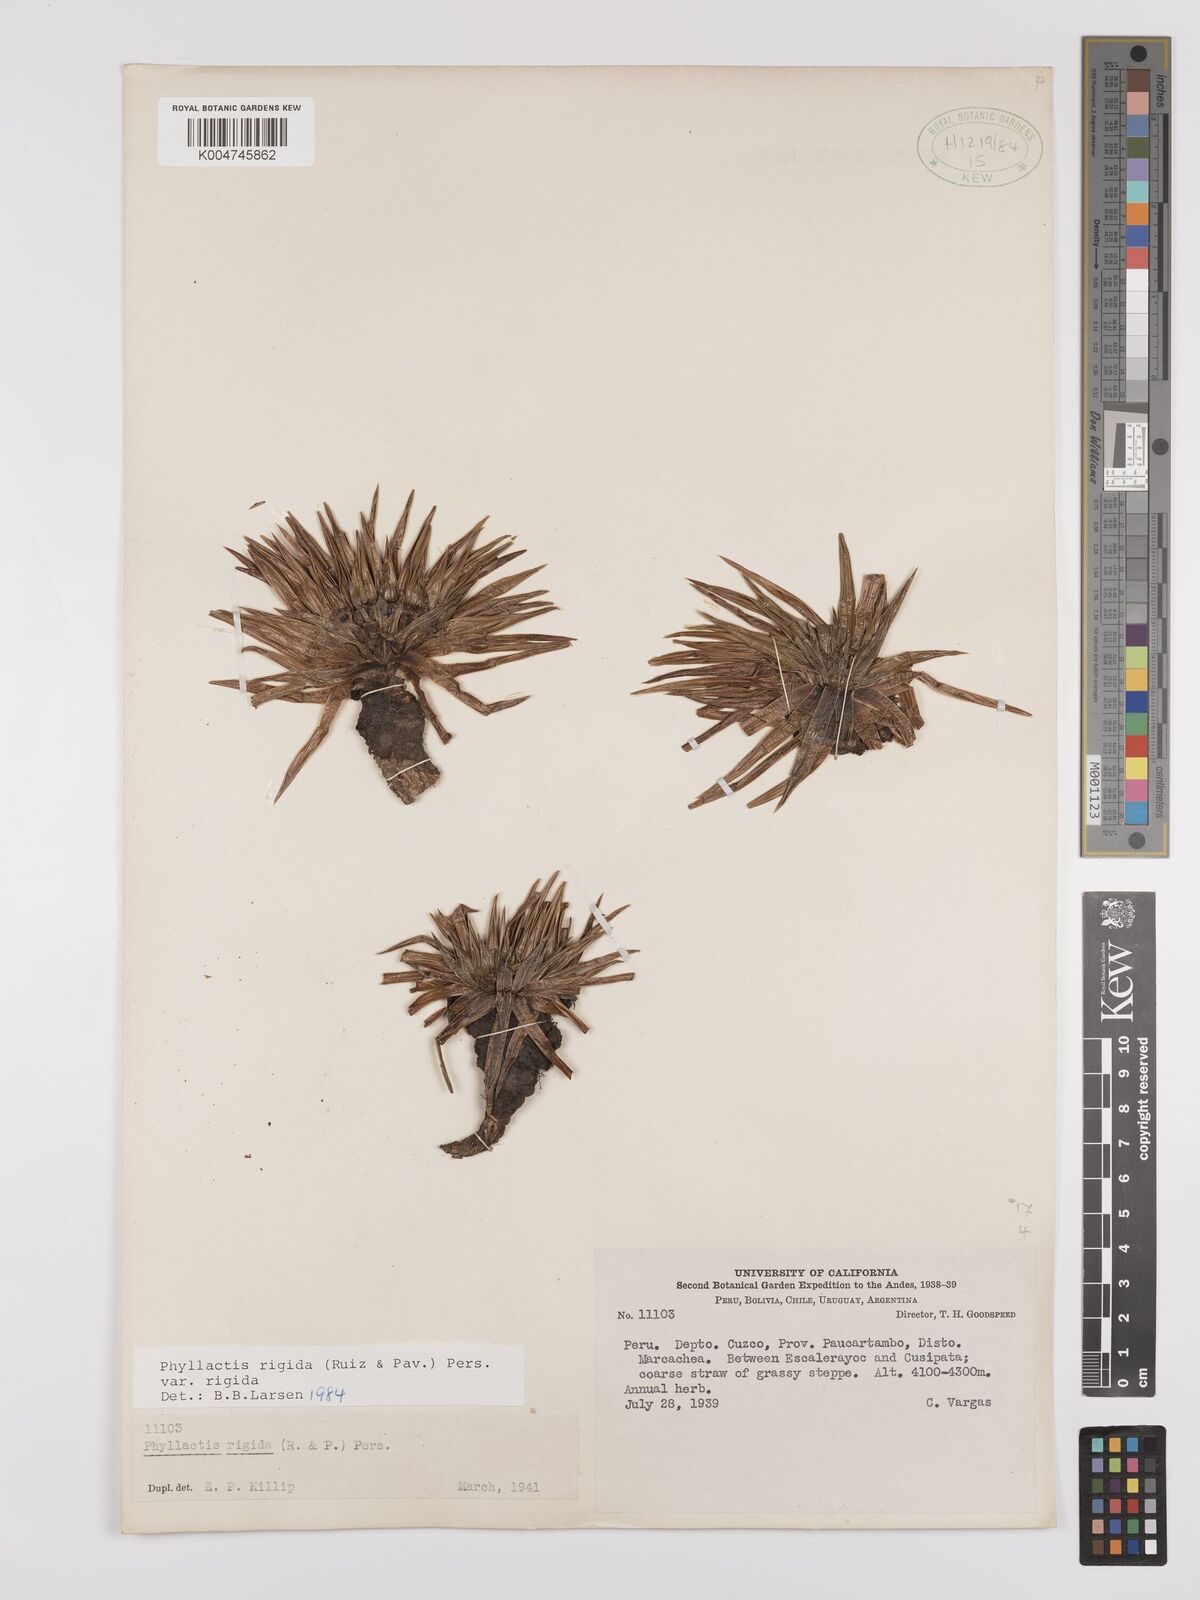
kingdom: Plantae
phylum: Tracheophyta
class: Magnoliopsida
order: Dipsacales
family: Caprifoliaceae
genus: Valeriana
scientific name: Valeriana rigida
